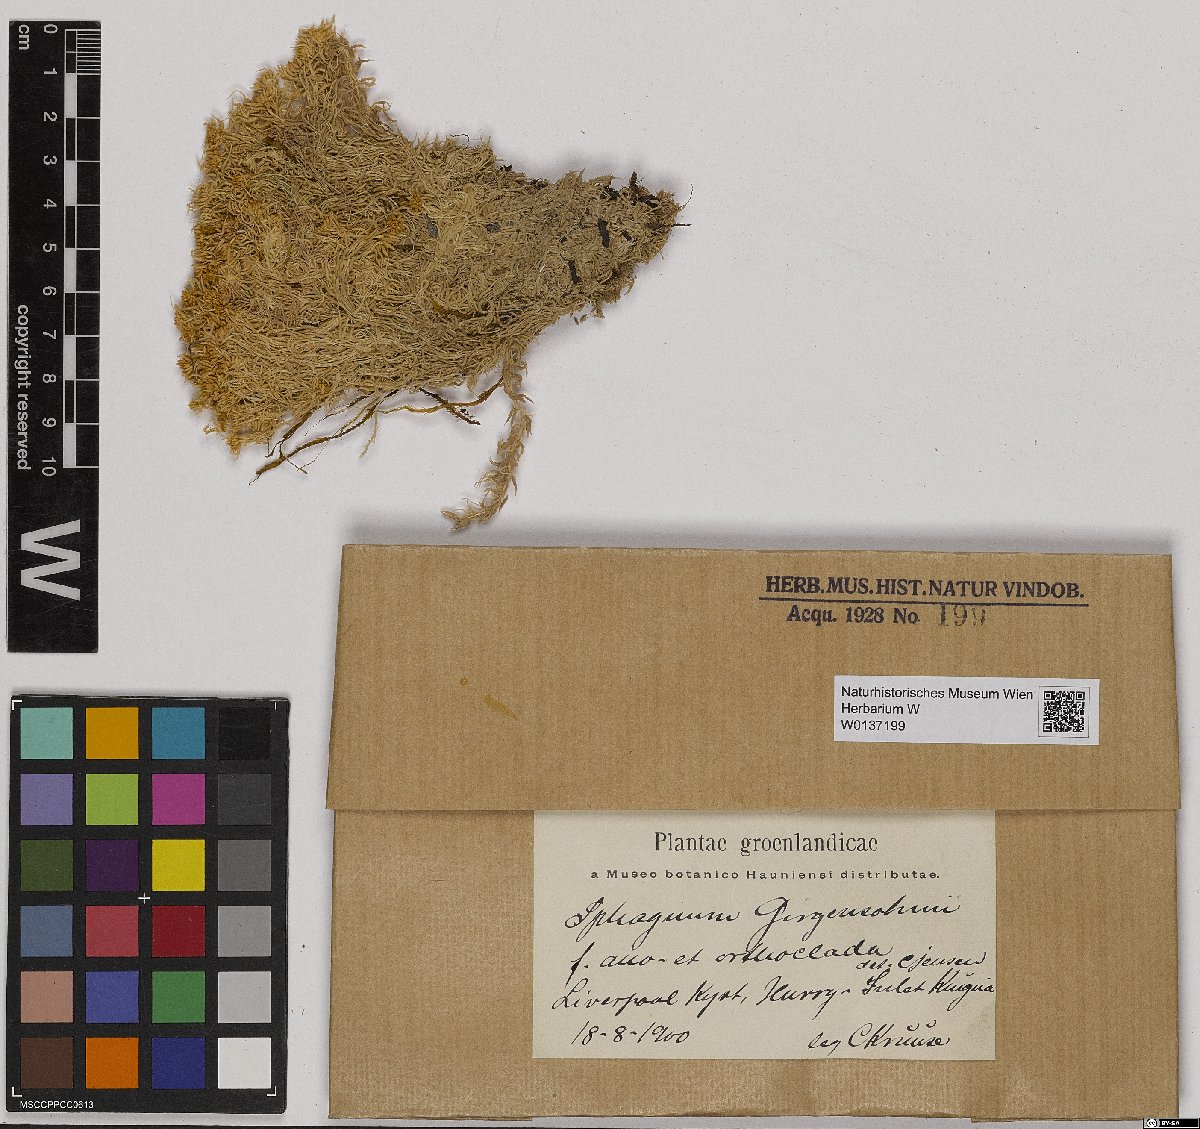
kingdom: Plantae
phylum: Bryophyta
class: Sphagnopsida
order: Sphagnales
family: Sphagnaceae
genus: Sphagnum
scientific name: Sphagnum girgensohnii
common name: Girgensohn's peat moss
